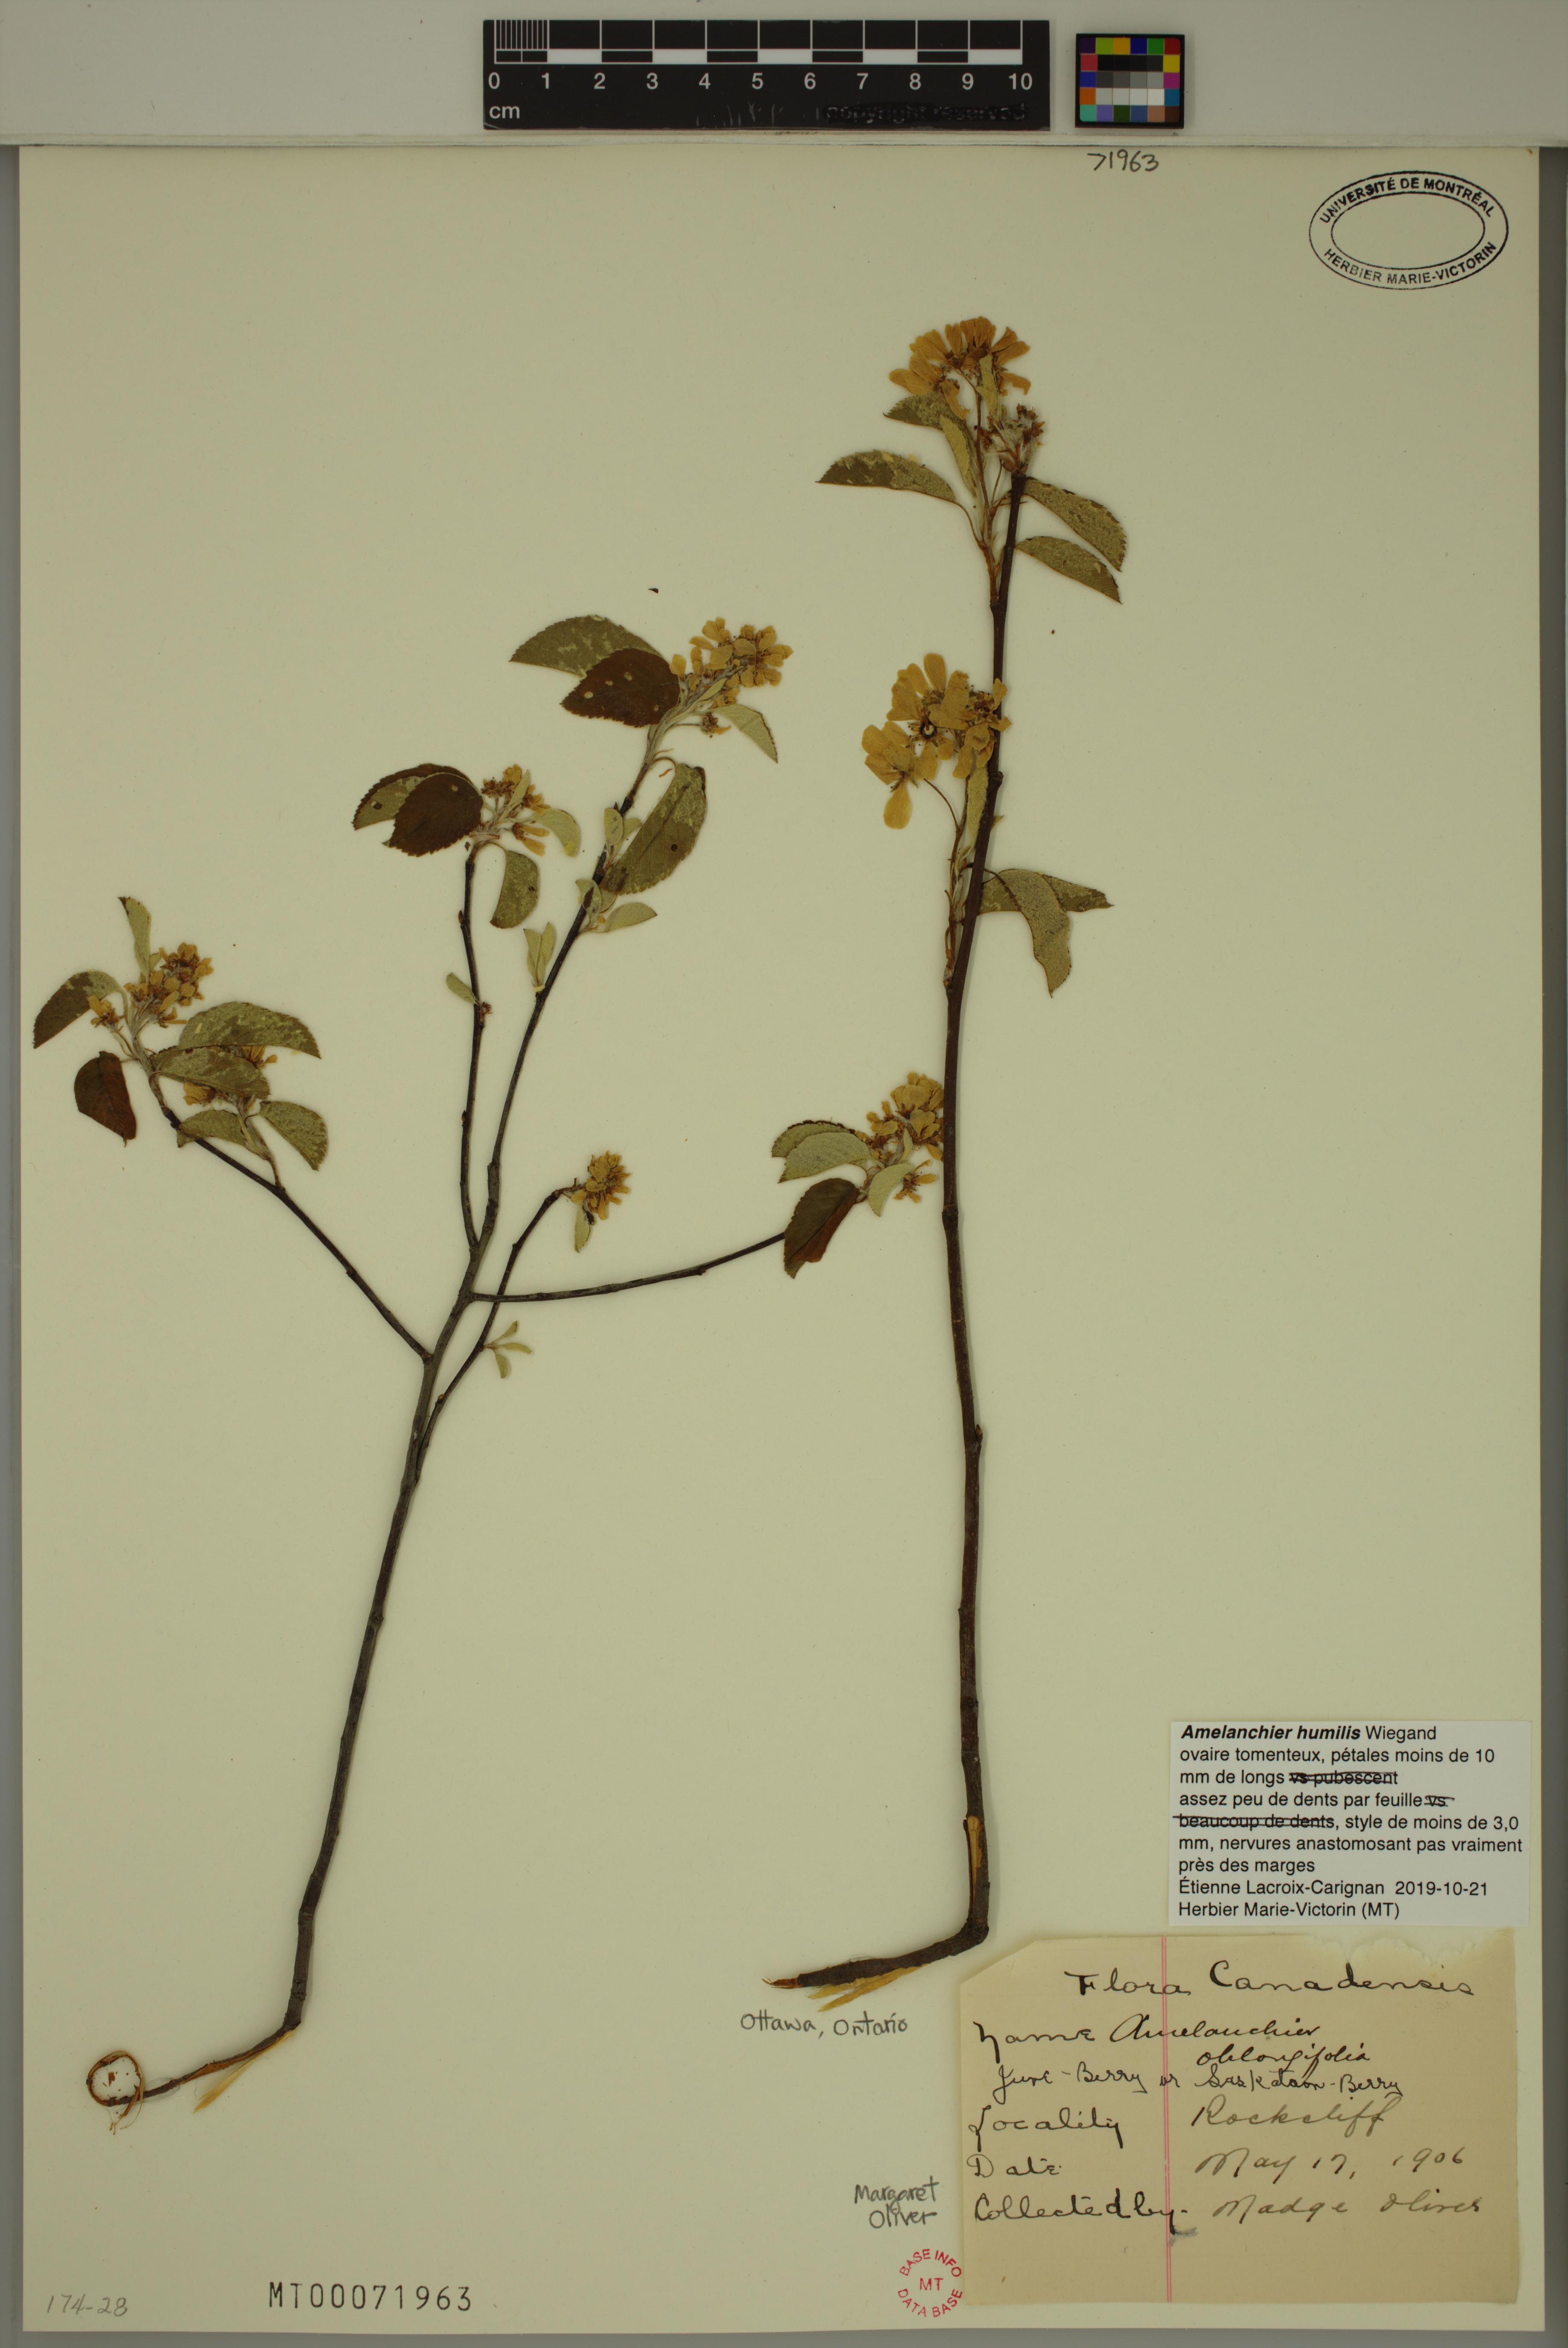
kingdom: Plantae
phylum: Tracheophyta
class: Magnoliopsida
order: Rosales
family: Rosaceae
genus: Amelanchier
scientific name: Amelanchier humilis
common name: Low juneberry
